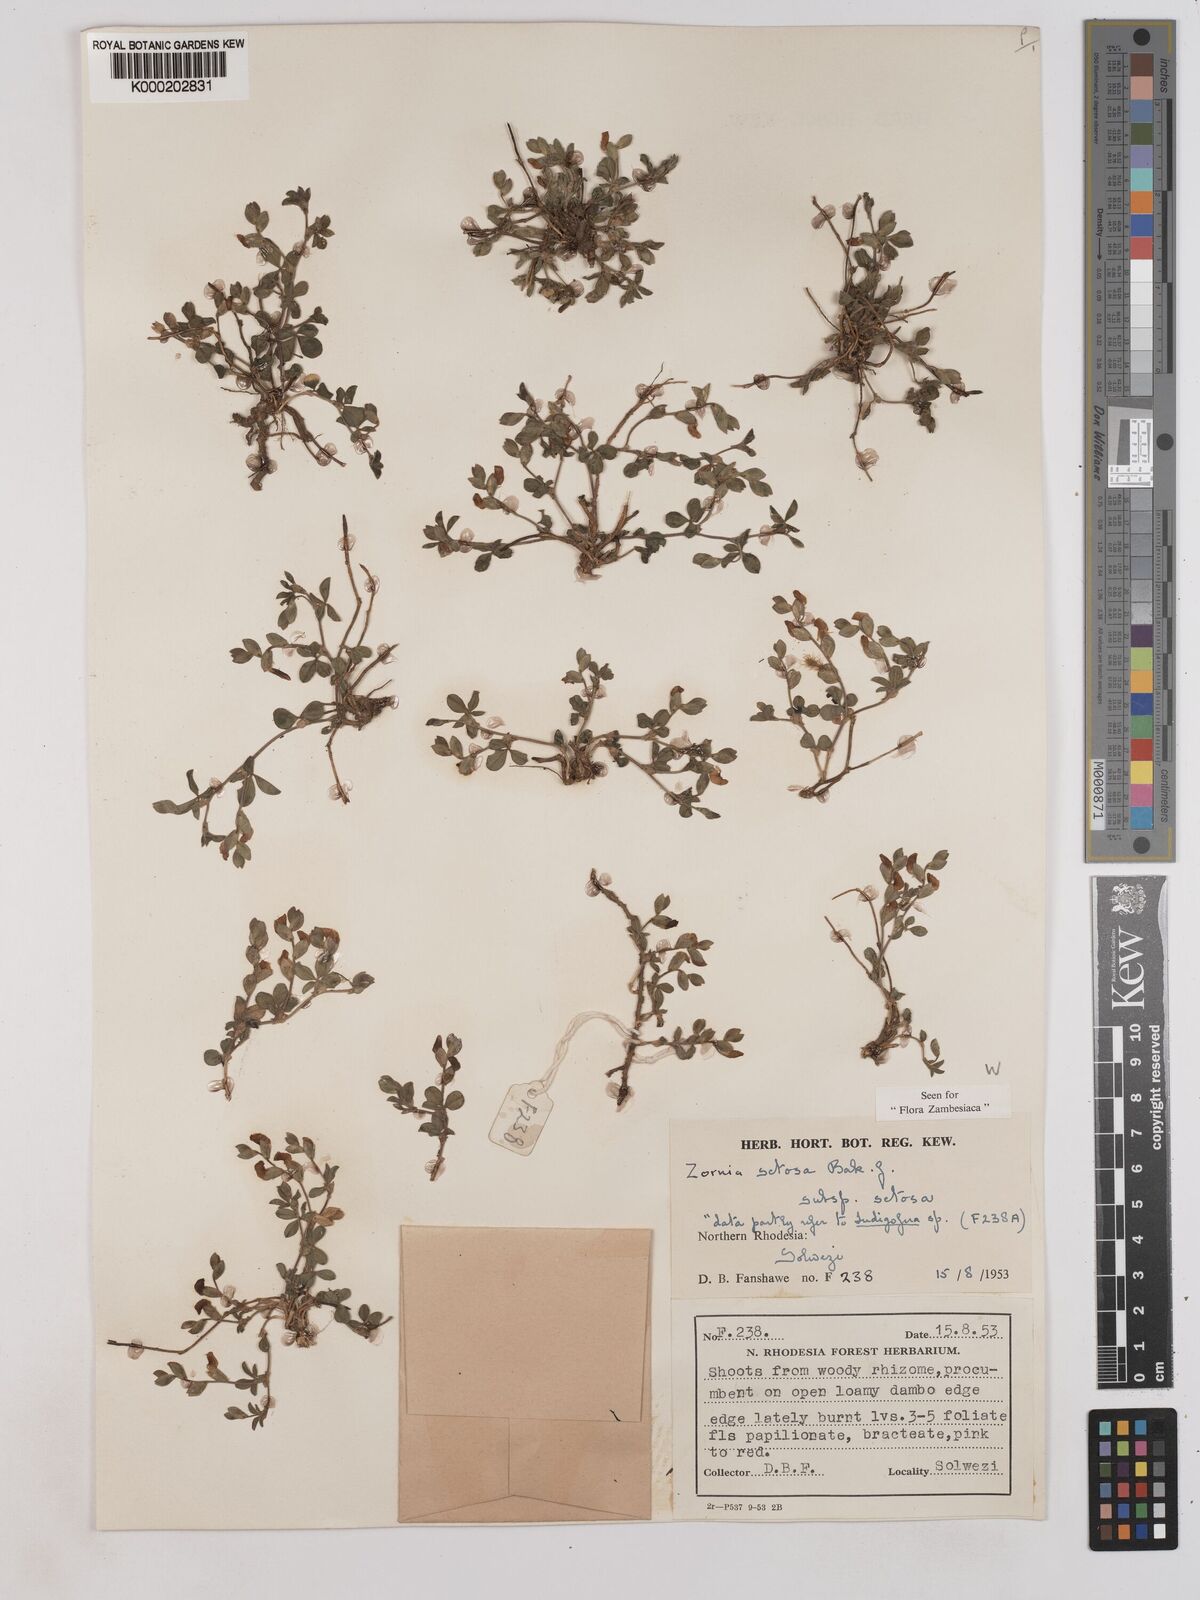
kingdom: Plantae
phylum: Tracheophyta
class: Magnoliopsida
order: Fabales
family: Fabaceae
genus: Zornia
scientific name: Zornia setosa
